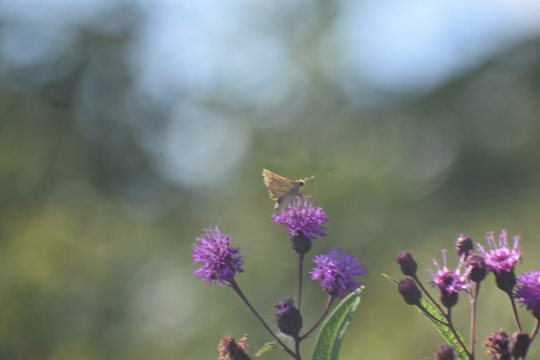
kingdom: Animalia
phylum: Arthropoda
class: Insecta
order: Lepidoptera
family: Hesperiidae
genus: Hylephila
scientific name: Hylephila phyleus
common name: Fiery Skipper
